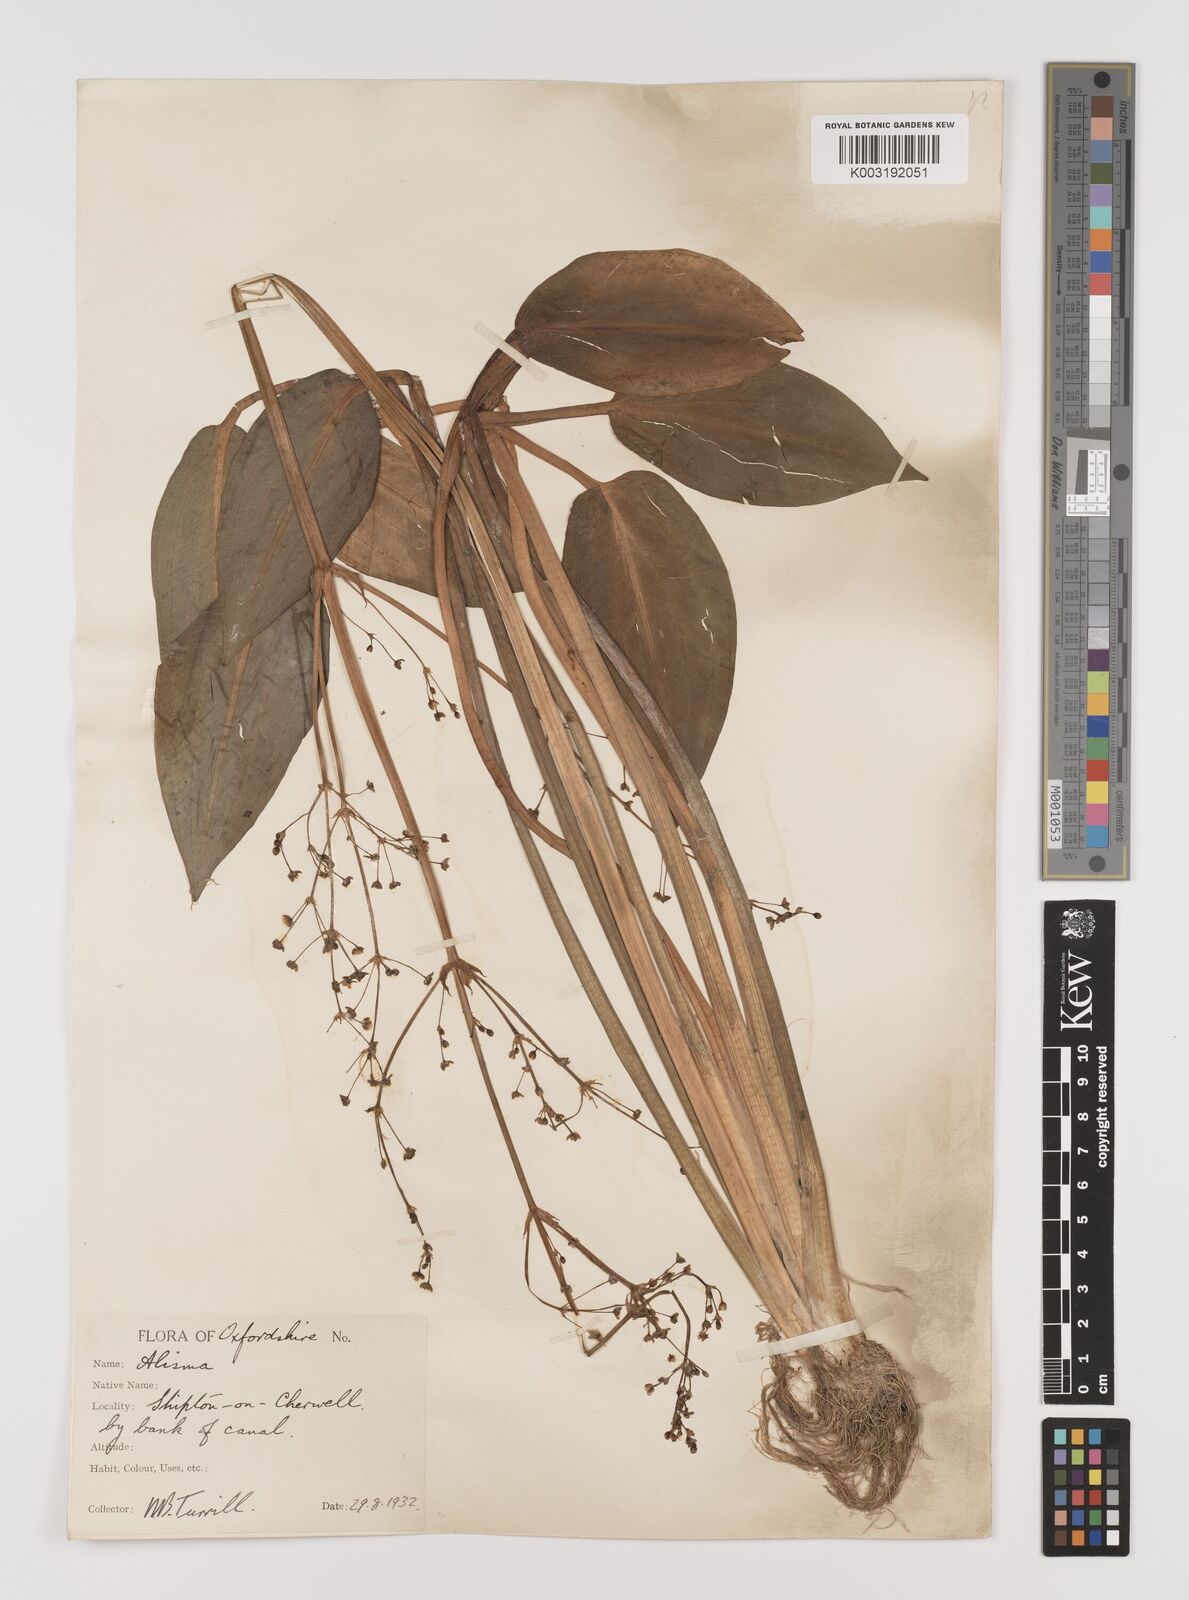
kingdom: Plantae
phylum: Tracheophyta
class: Liliopsida
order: Alismatales
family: Alismataceae
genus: Alisma
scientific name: Alisma plantago-aquatica
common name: Water-plantain
